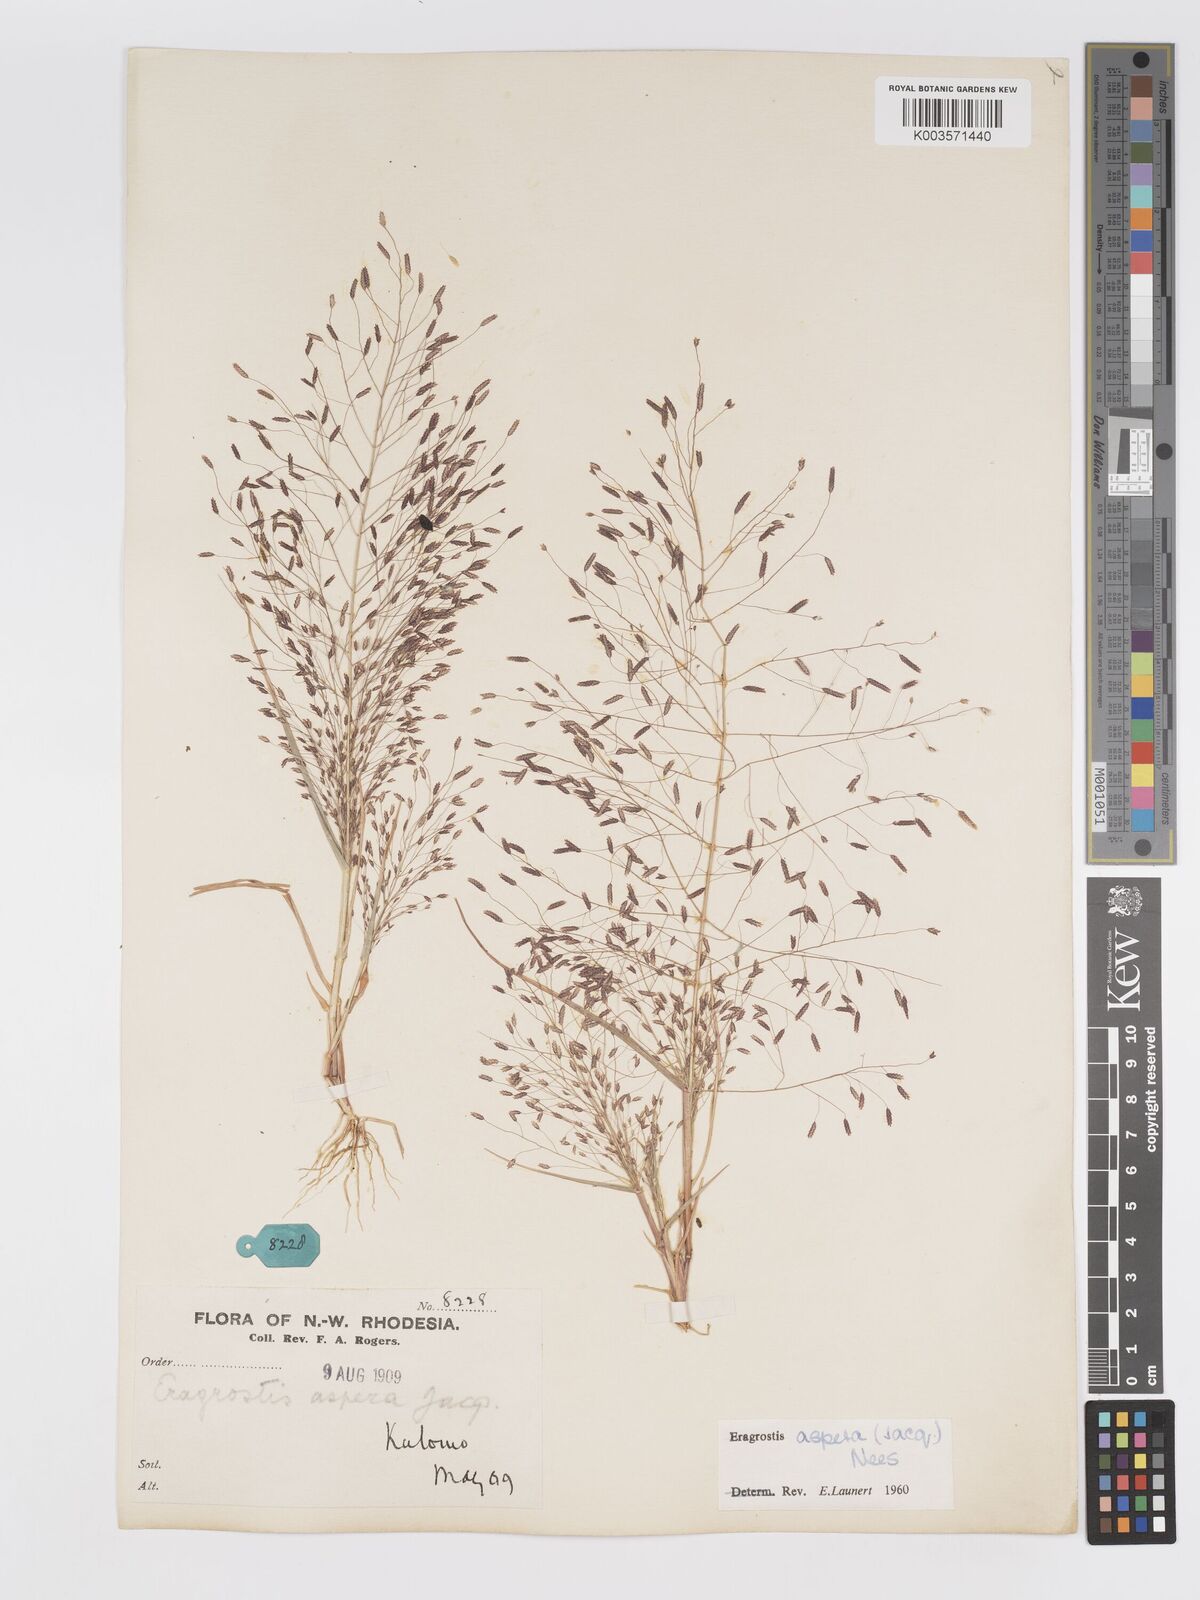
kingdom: Plantae
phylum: Tracheophyta
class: Liliopsida
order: Poales
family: Poaceae
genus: Eragrostis
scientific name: Eragrostis aspera
